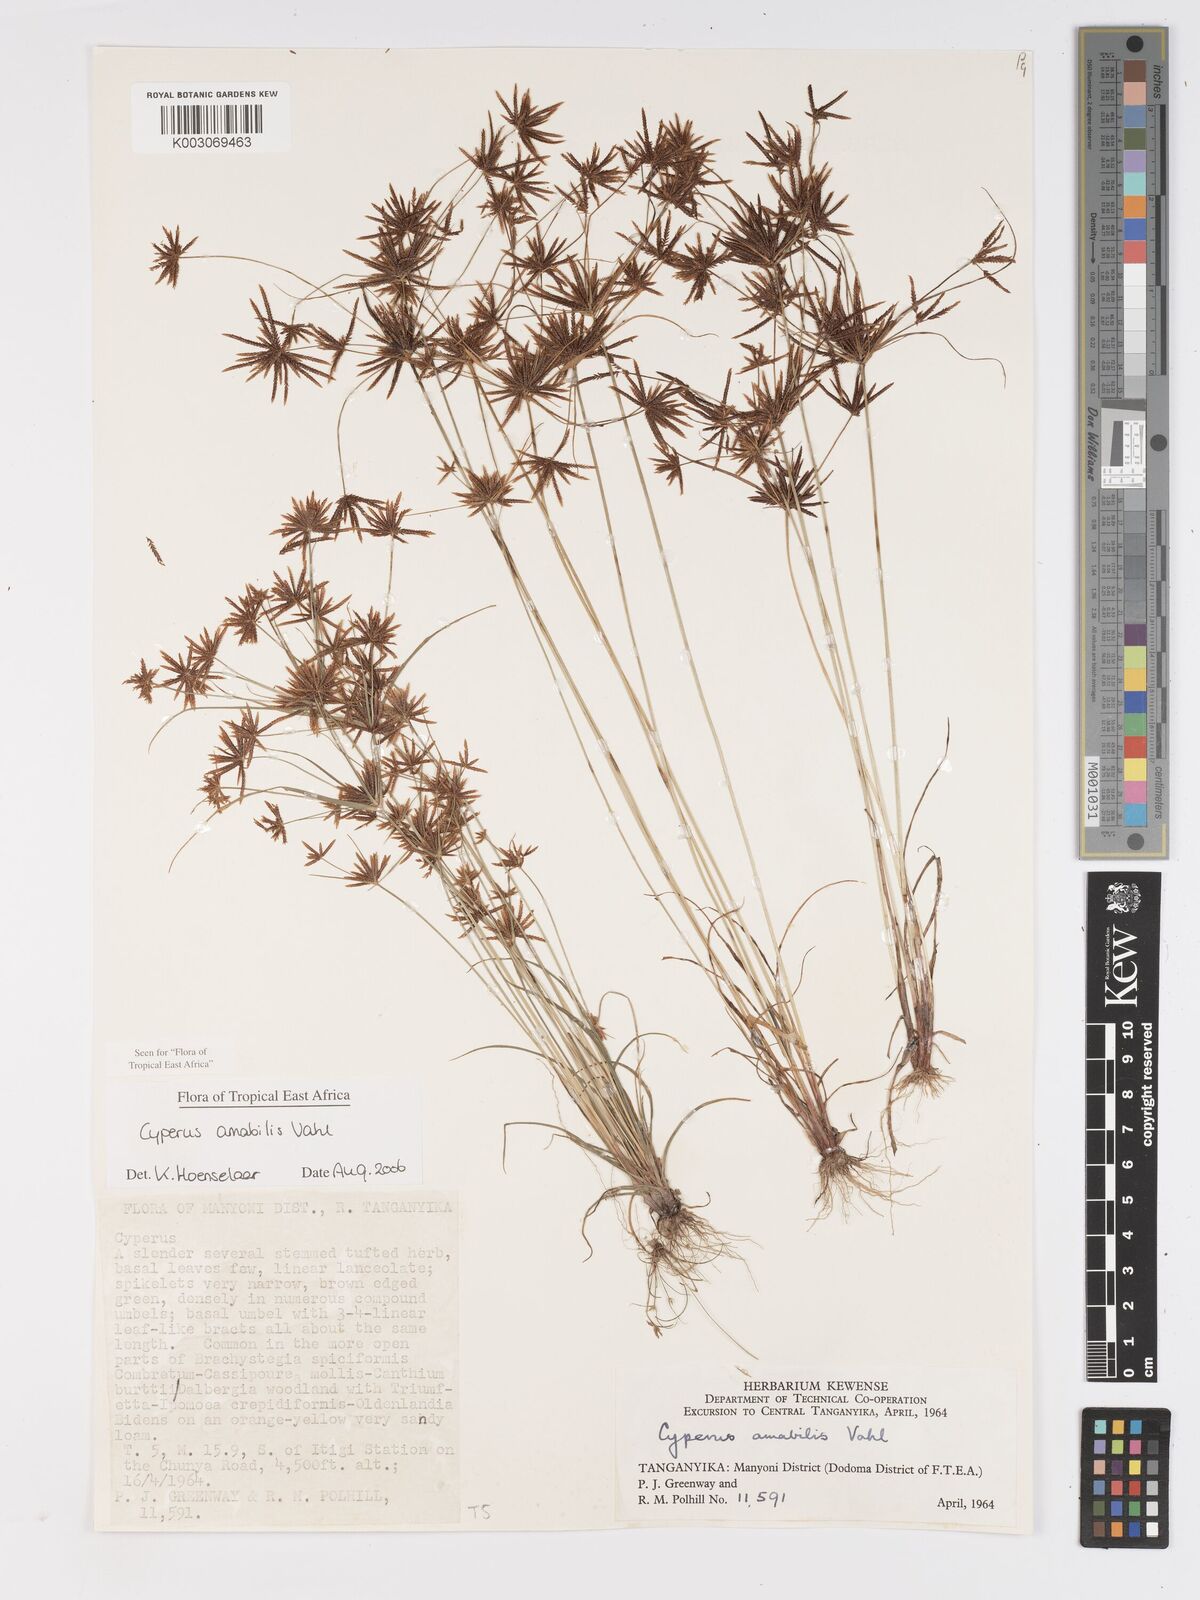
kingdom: Plantae
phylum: Tracheophyta
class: Liliopsida
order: Poales
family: Cyperaceae
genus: Cyperus
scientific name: Cyperus amabilis
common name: Foothill flat sedge
